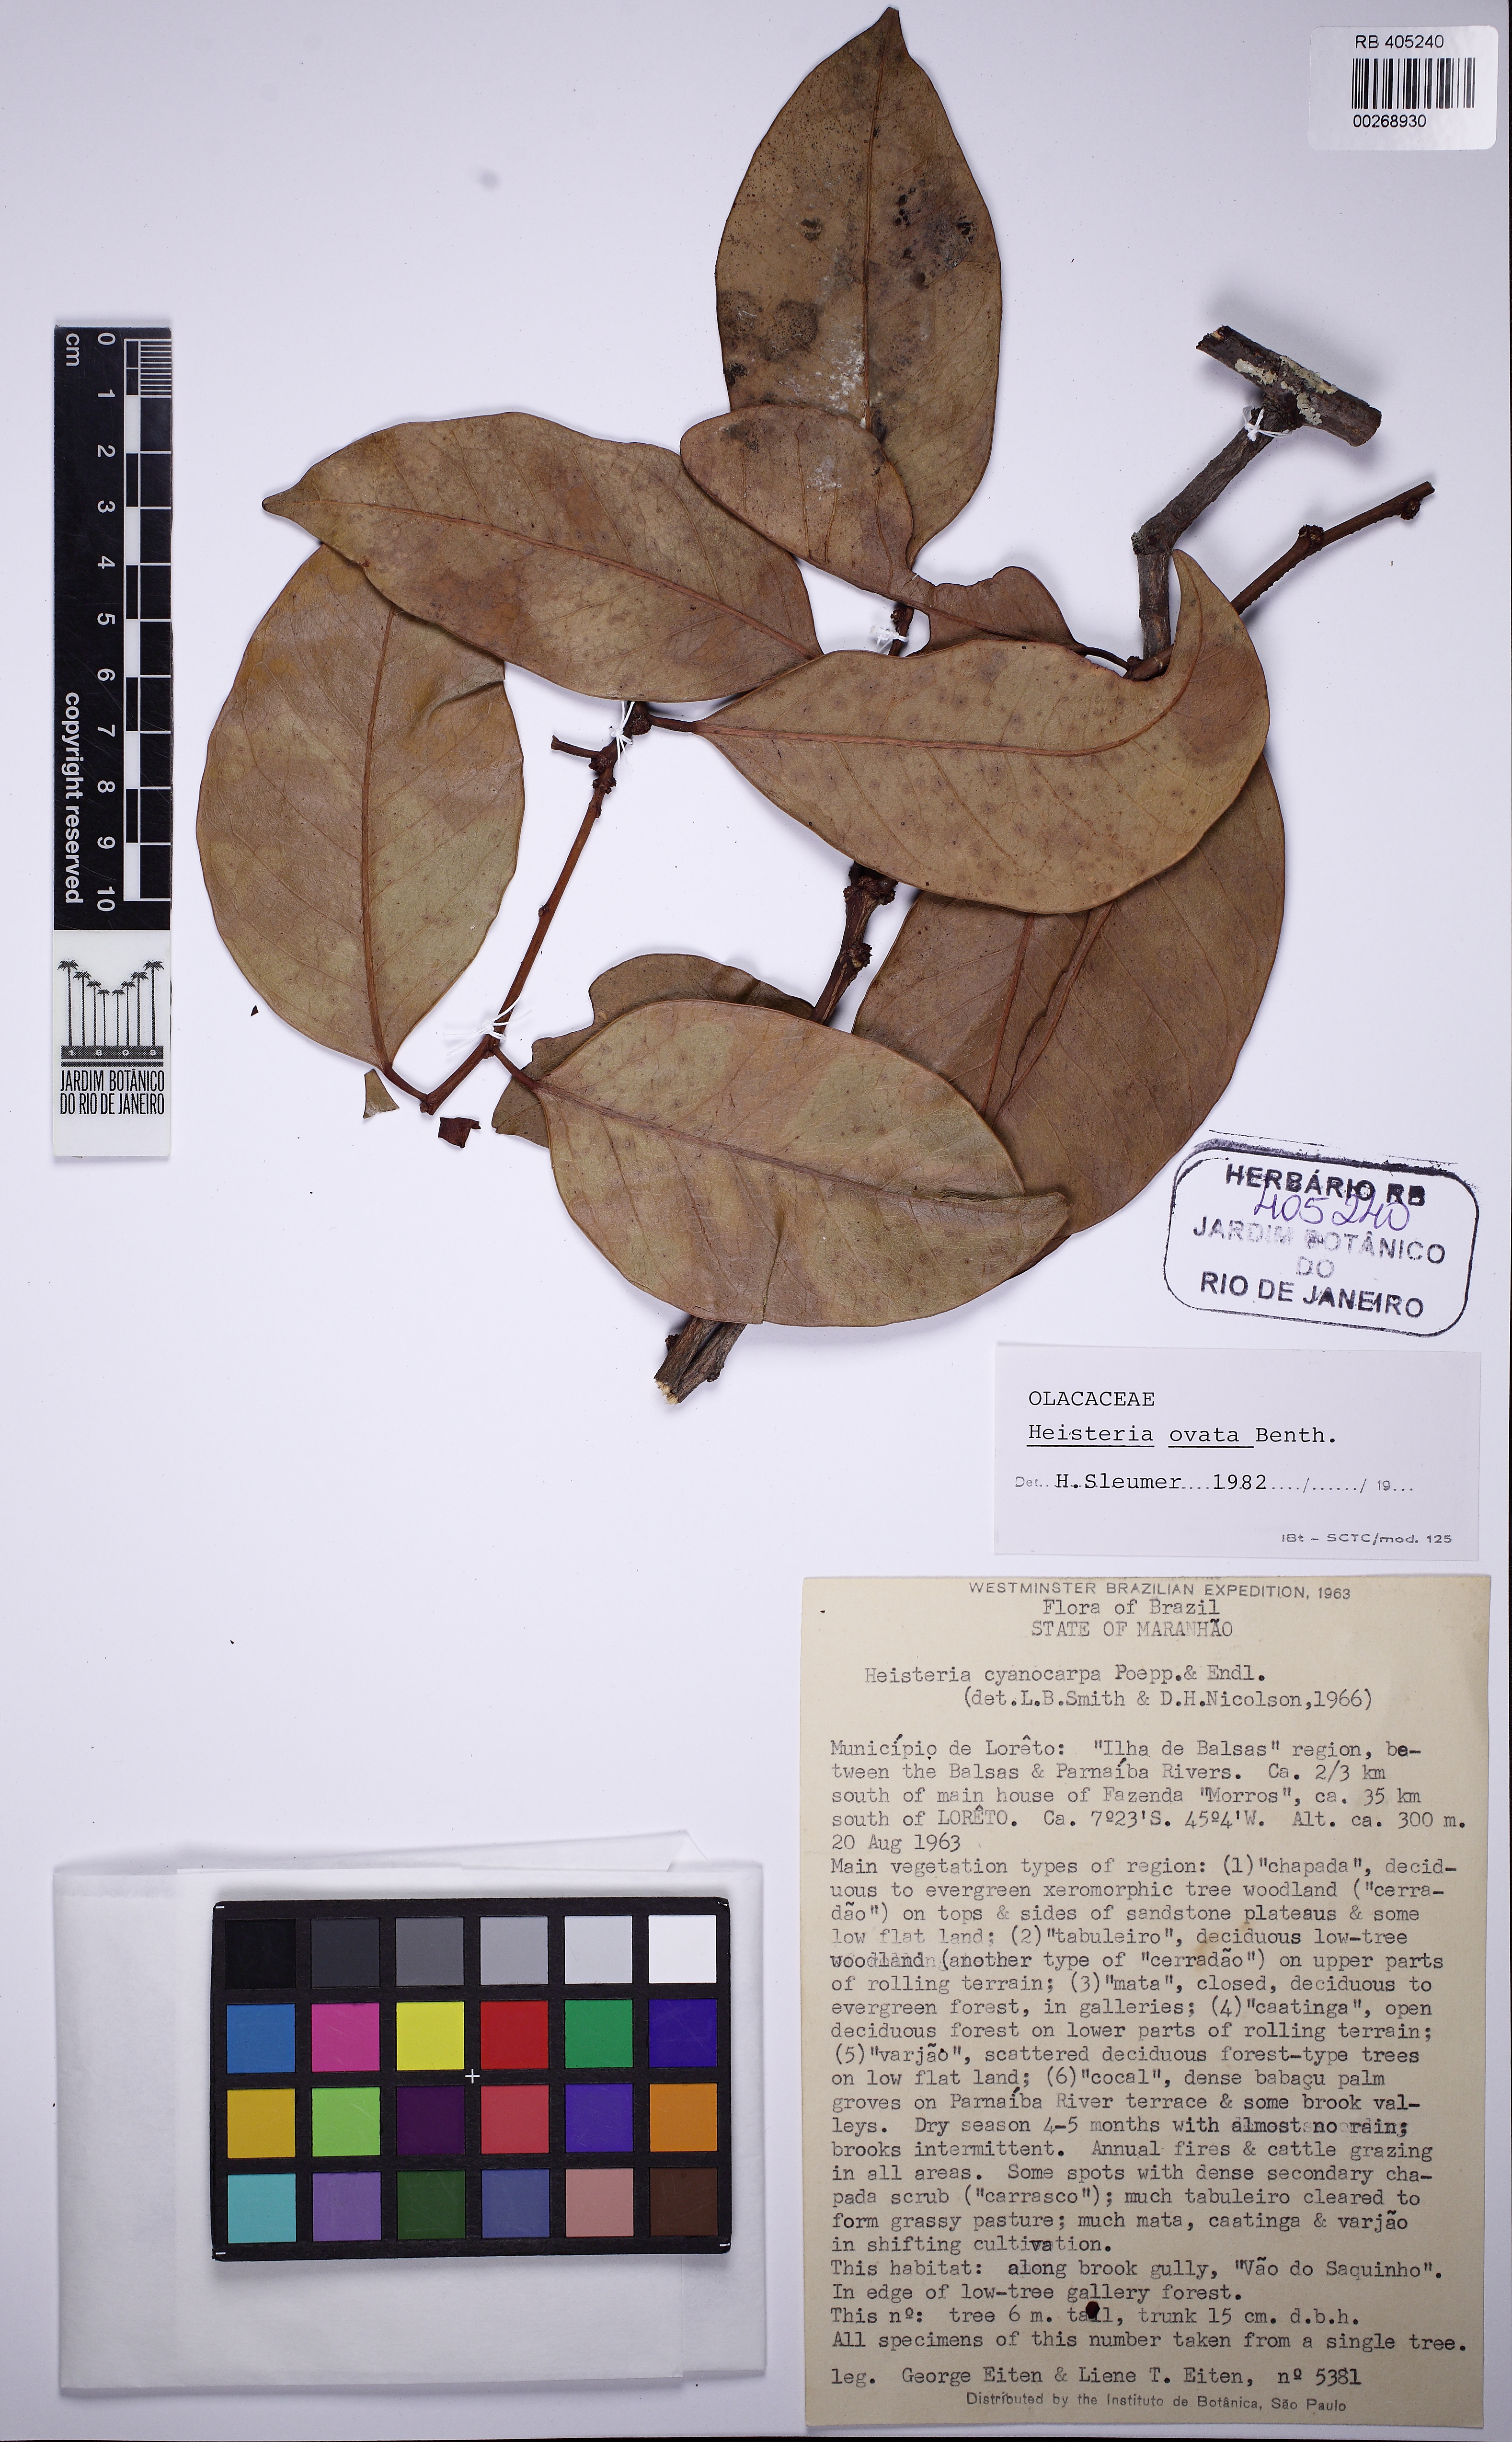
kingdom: Plantae
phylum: Tracheophyta
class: Magnoliopsida
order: Santalales
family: Erythropalaceae
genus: Heisteria
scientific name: Heisteria ovata
